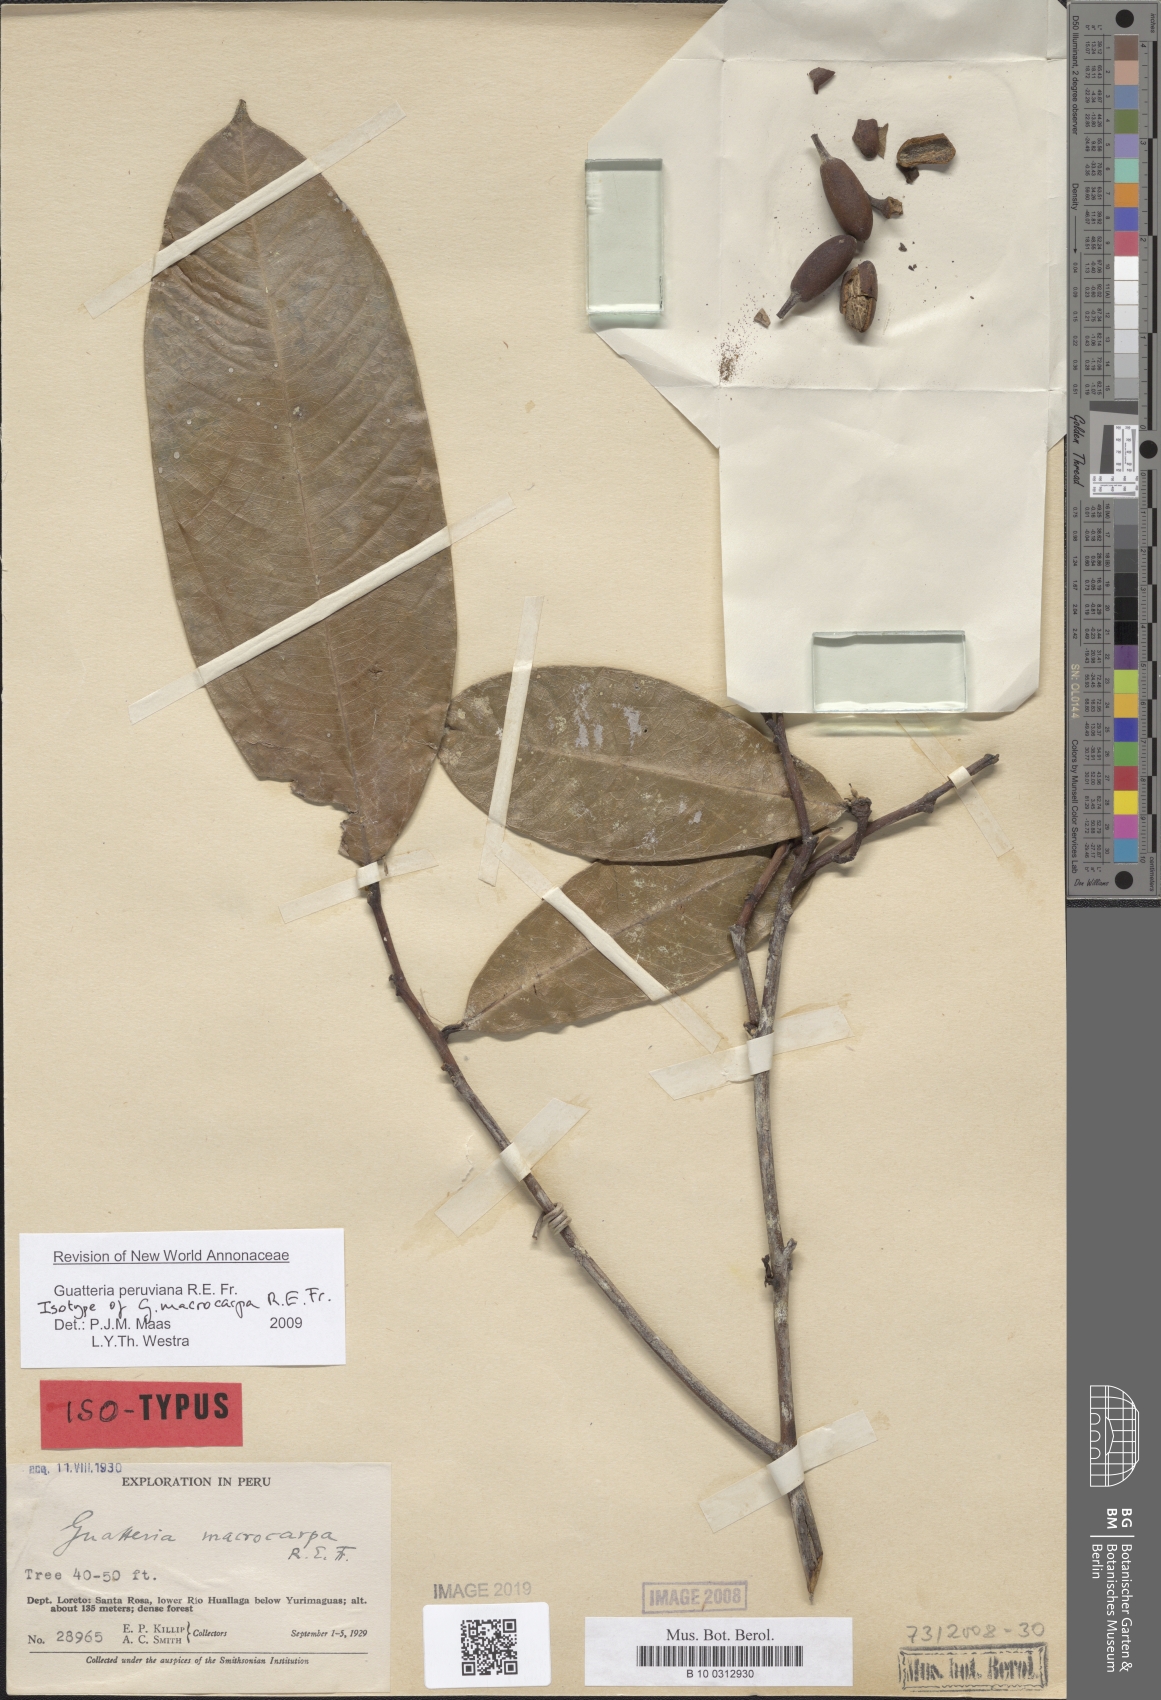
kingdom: Plantae
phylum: Tracheophyta
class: Magnoliopsida
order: Magnoliales
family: Annonaceae
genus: Guatteria
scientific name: Guatteria peruviana
